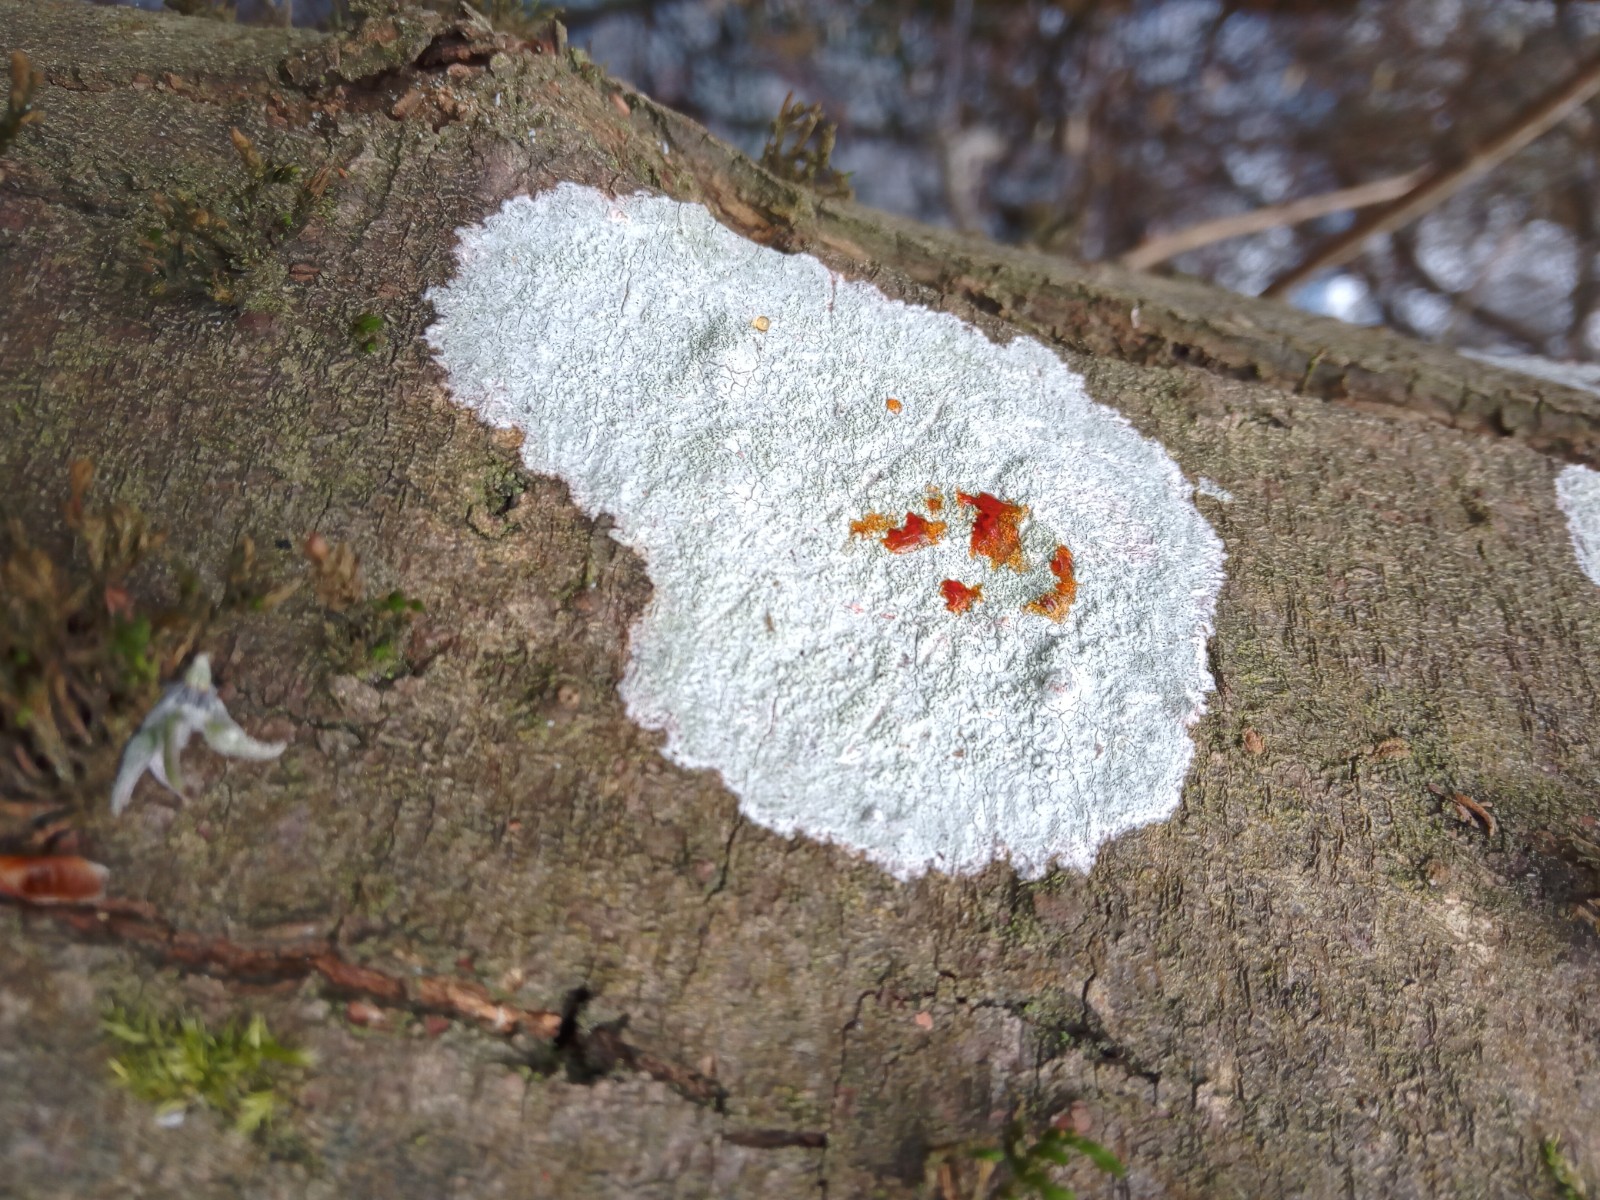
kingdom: Fungi
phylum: Ascomycota
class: Lecanoromycetes
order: Ostropales
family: Phlyctidaceae
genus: Phlyctis
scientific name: Phlyctis argena
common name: almindelig sølvlav
